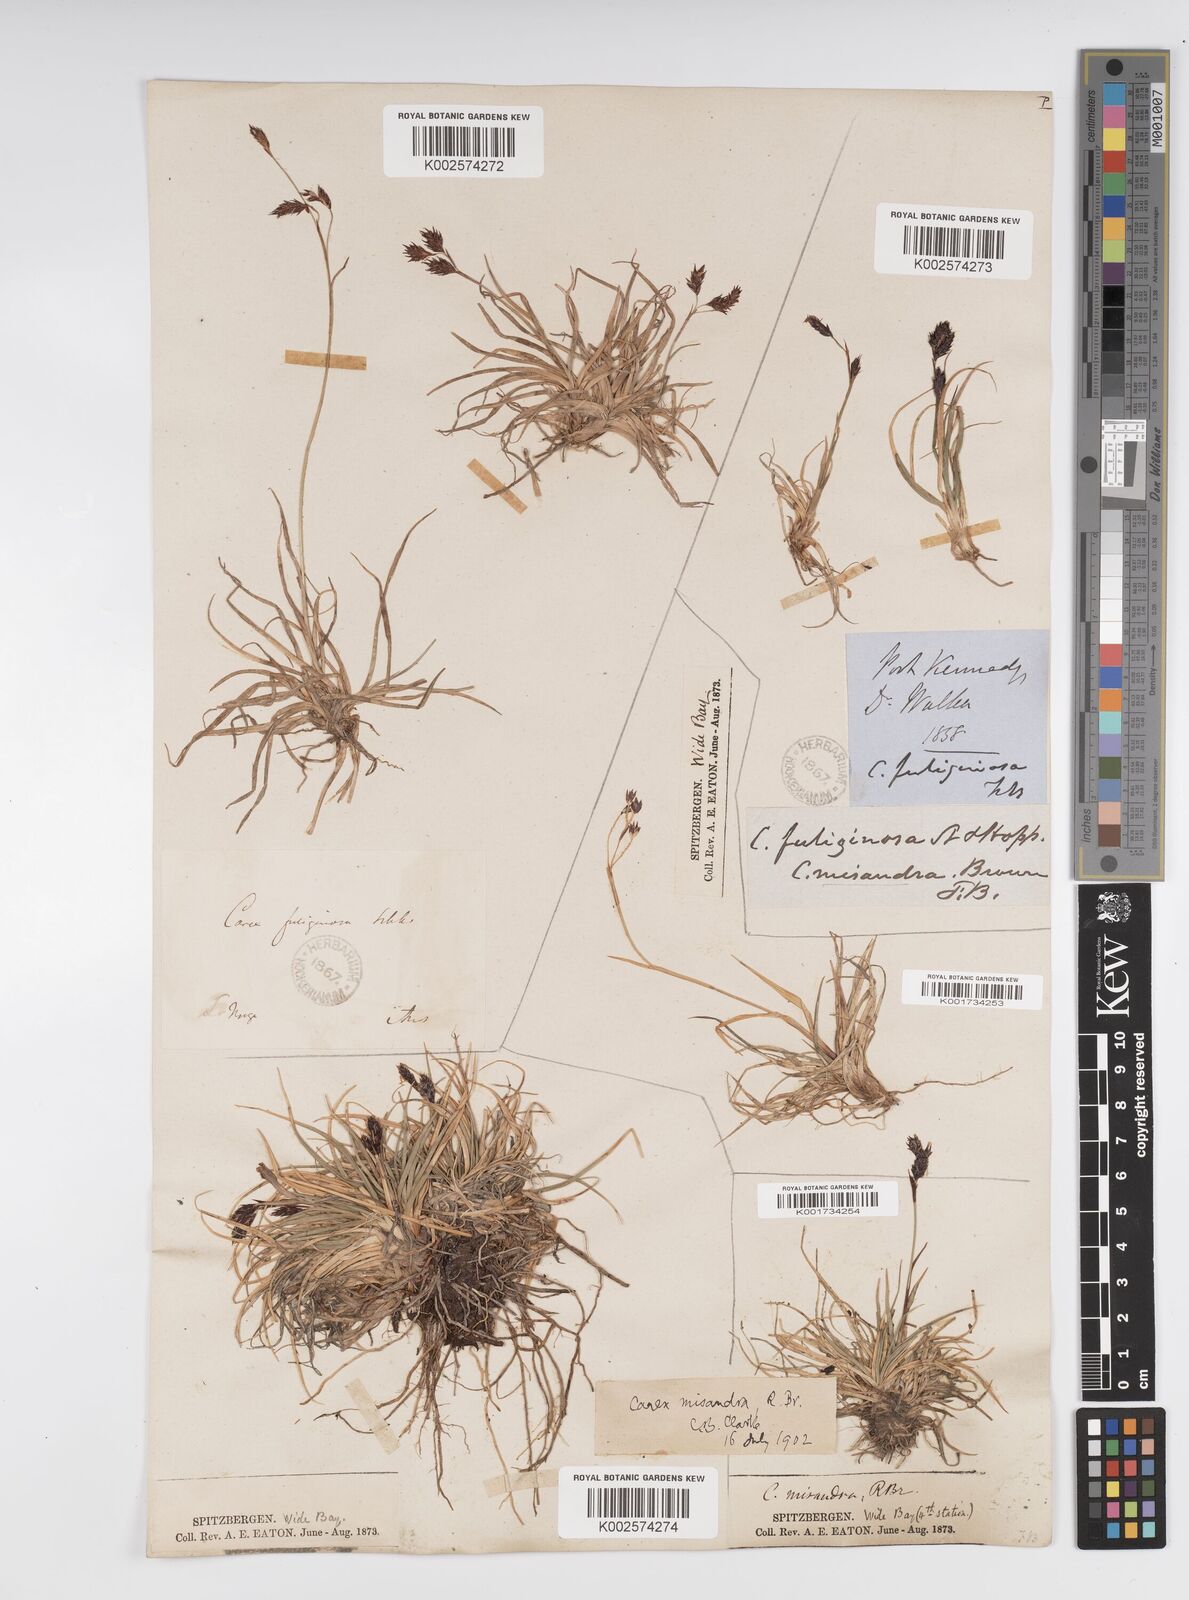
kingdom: Plantae
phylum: Tracheophyta
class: Liliopsida
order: Poales
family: Cyperaceae
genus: Carex
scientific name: Carex fuliginosa
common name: Few-flowered sedge
